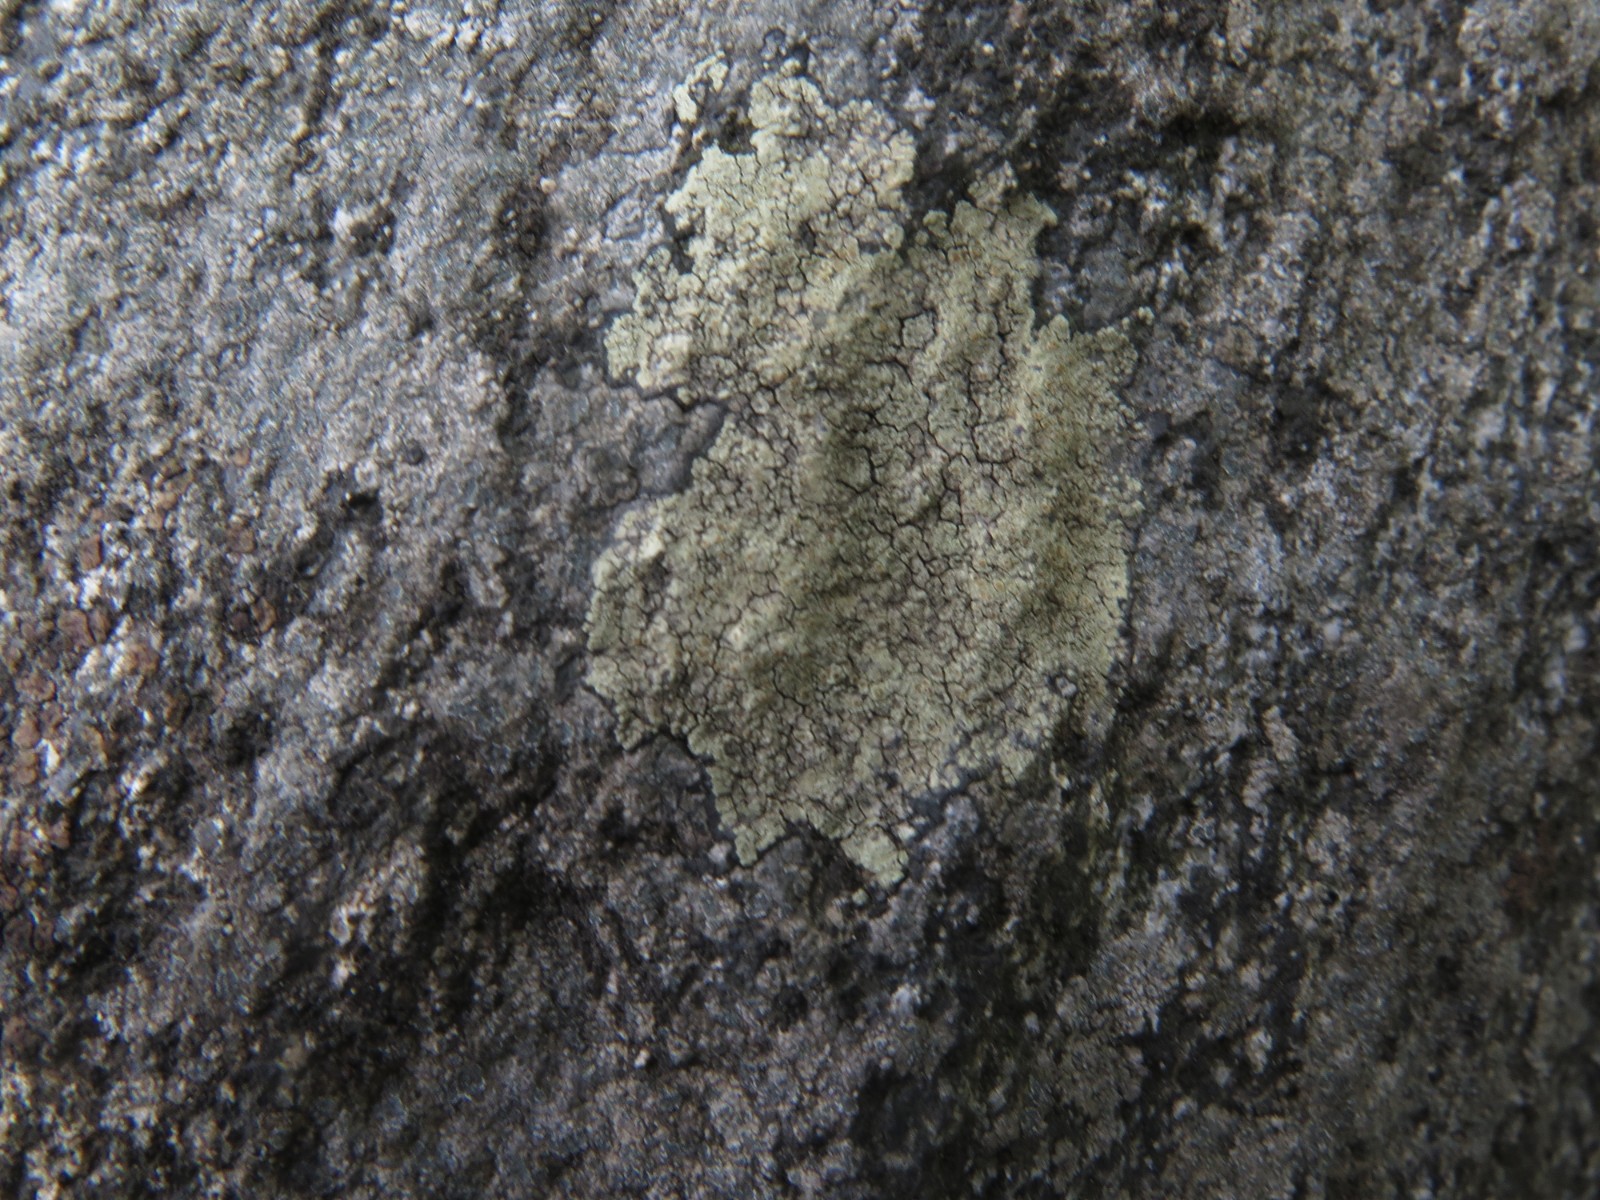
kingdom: Fungi
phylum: Ascomycota
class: Lecanoromycetes
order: Lecanorales
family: Lecanoraceae
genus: Glaucomaria
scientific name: Glaucomaria sulphurea
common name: svovlgul kantskivelav
